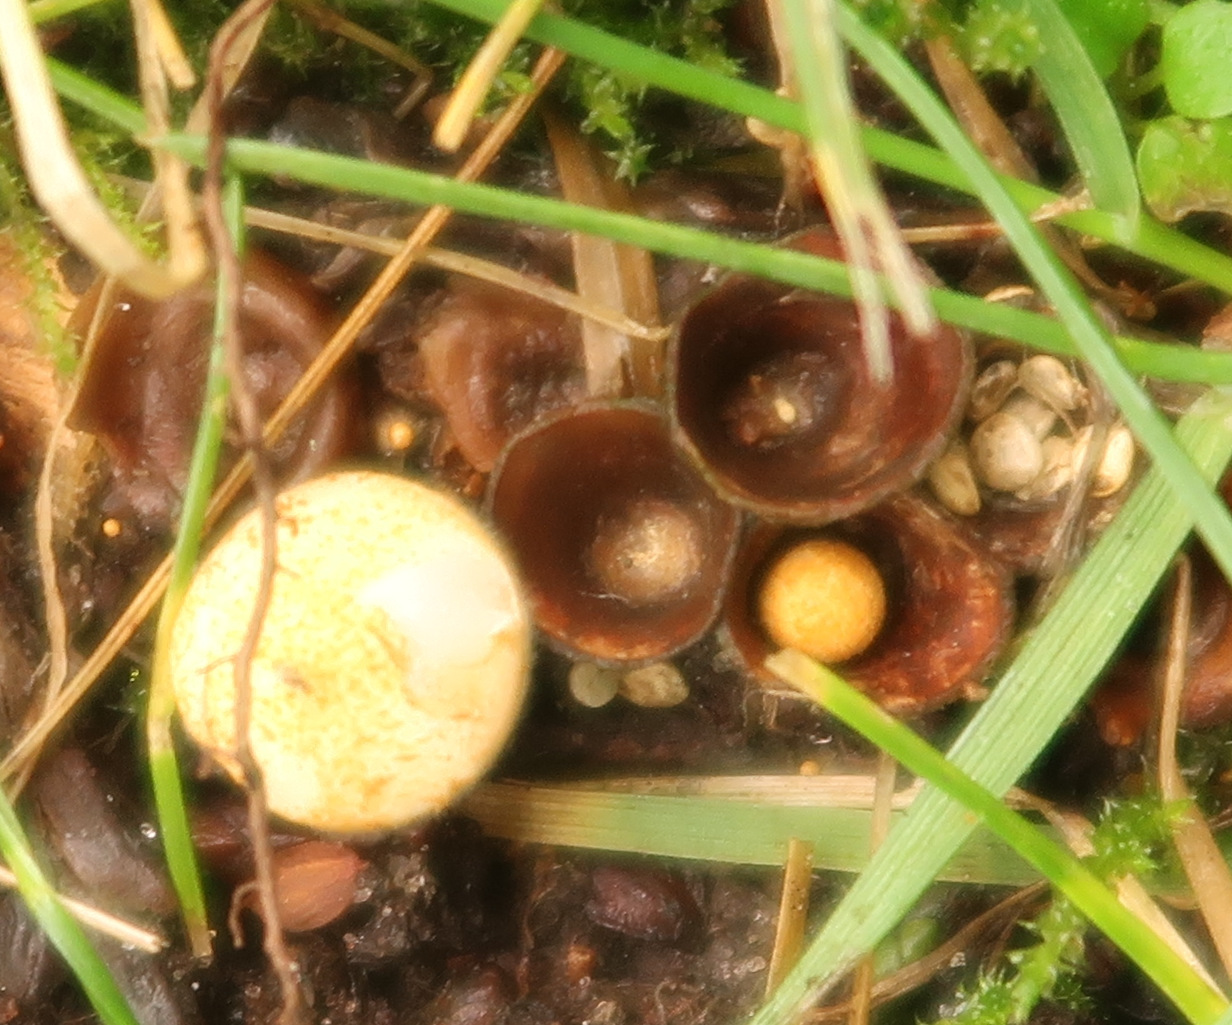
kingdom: Fungi
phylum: Basidiomycota
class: Agaricomycetes
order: Agaricales
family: Nidulariaceae
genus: Crucibulum
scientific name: Crucibulum crucibuliforme
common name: krukkesvamp
